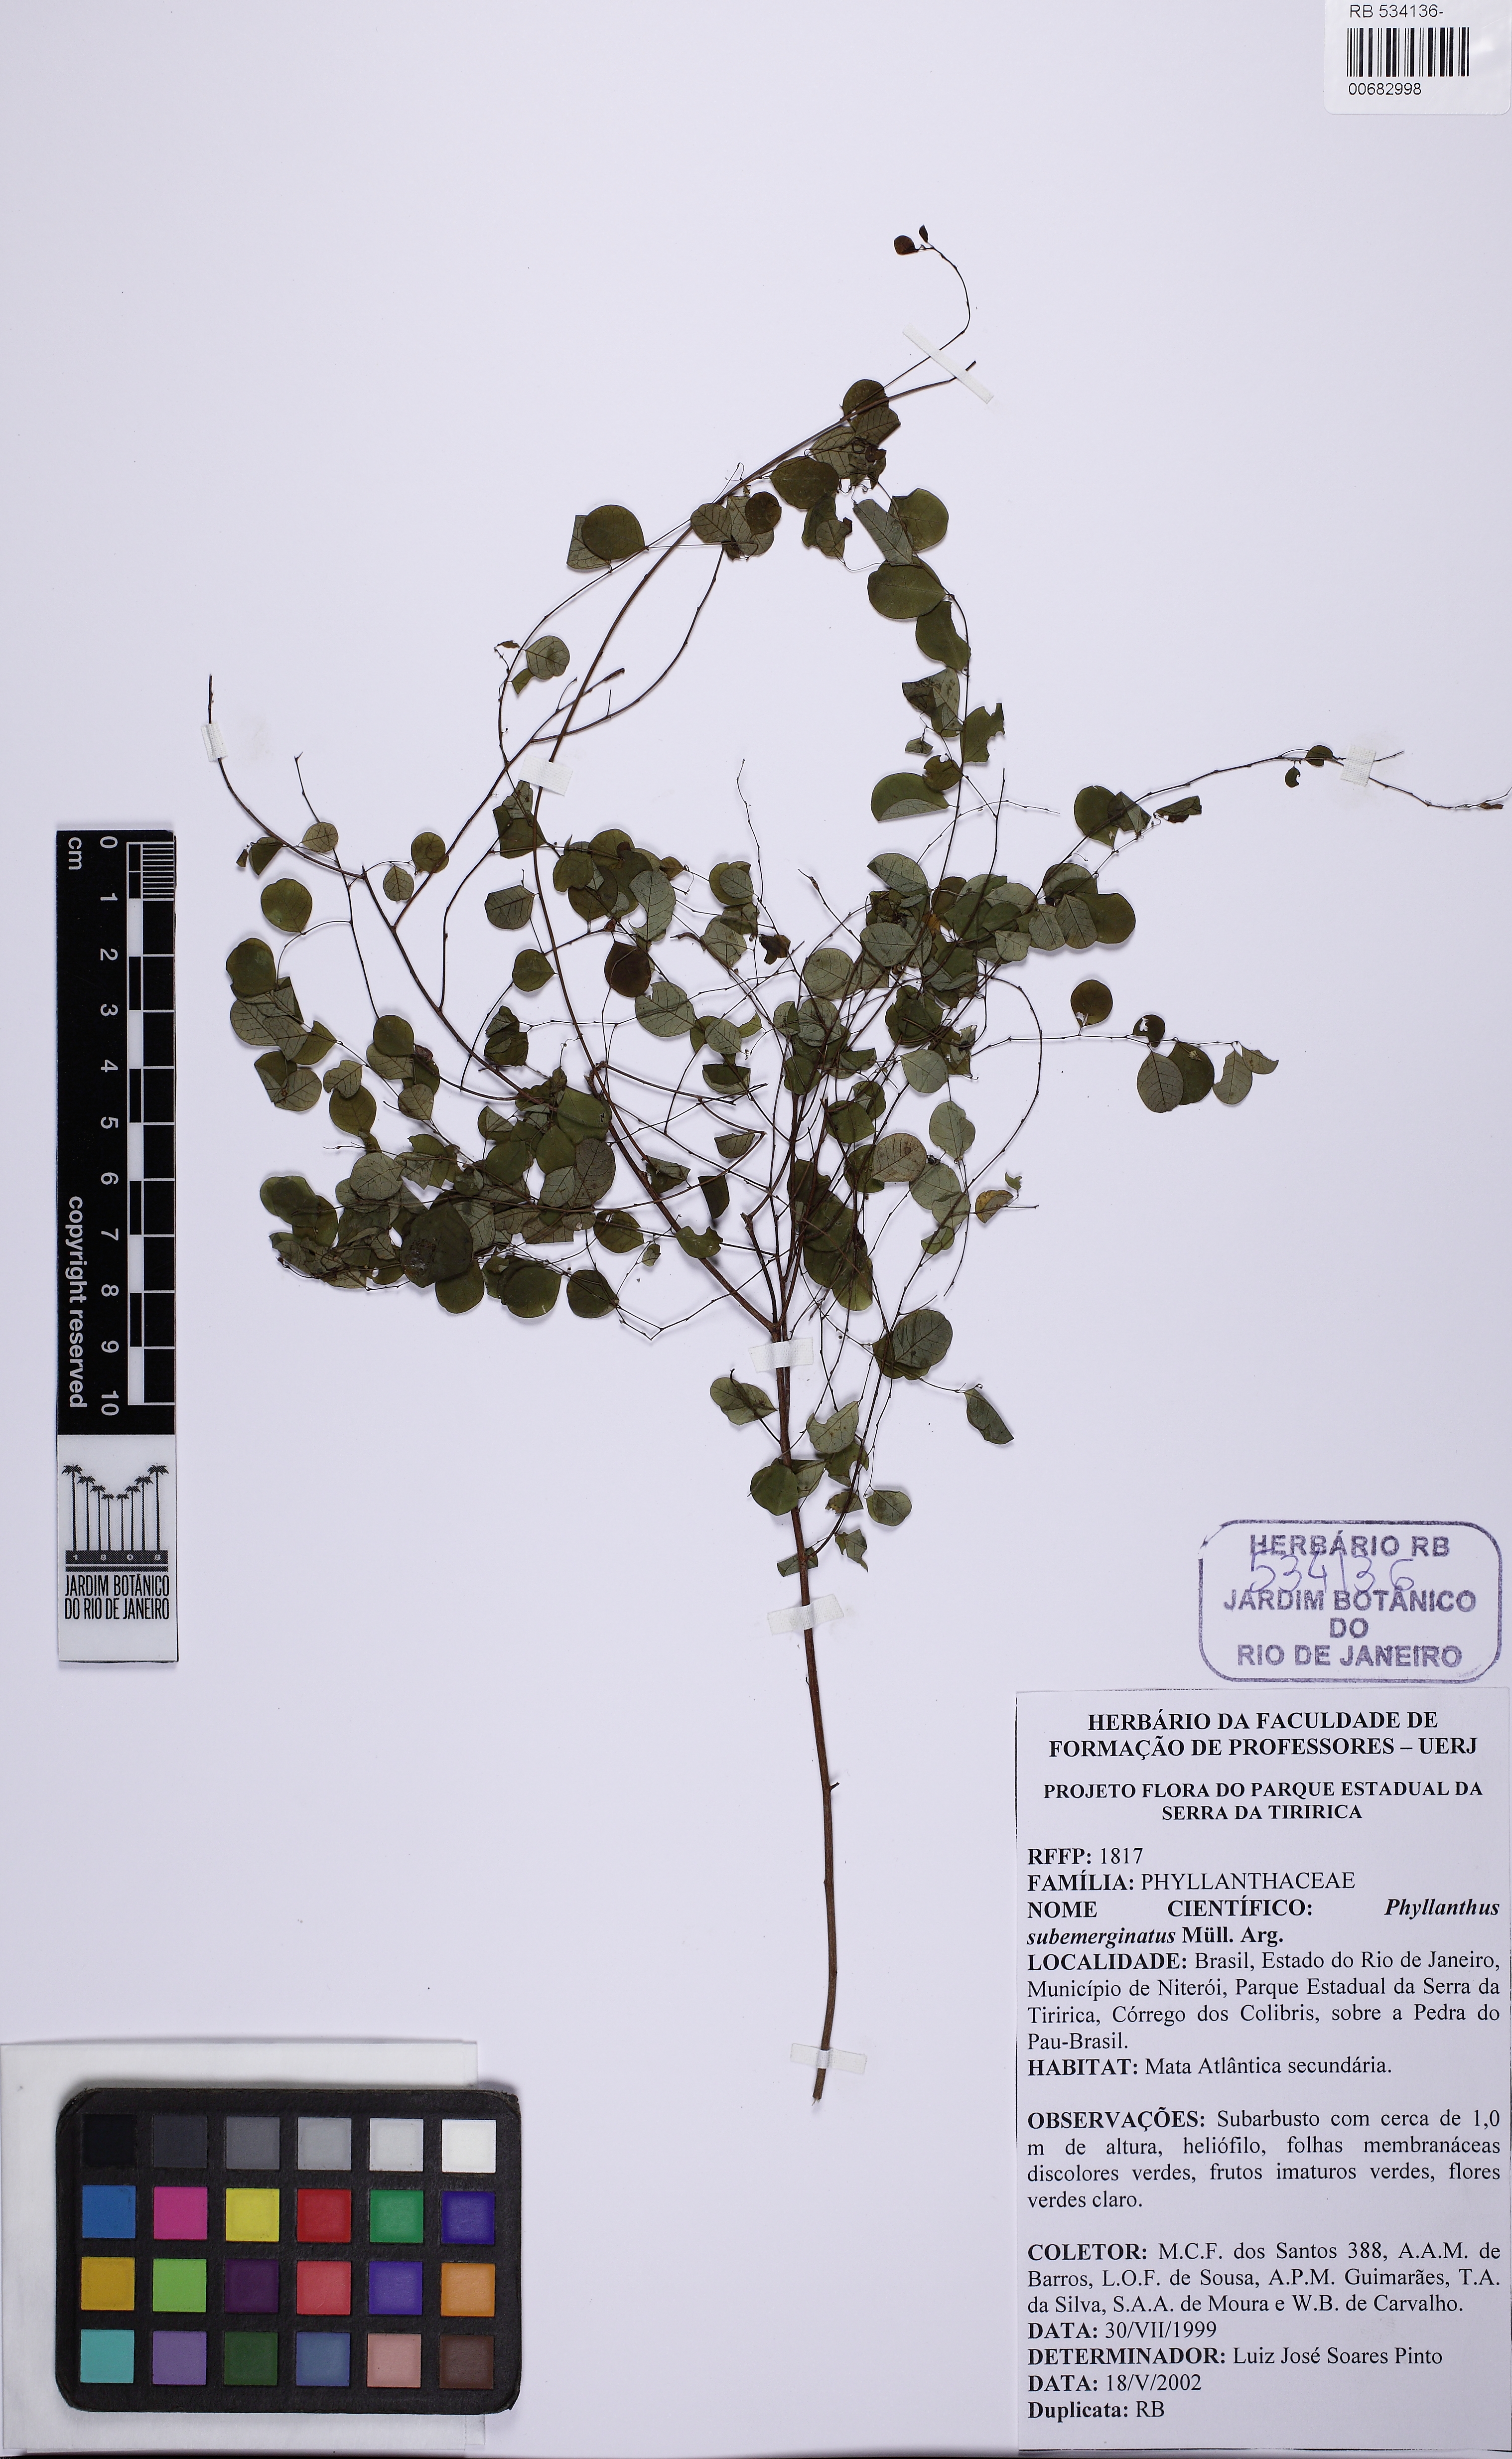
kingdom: Plantae
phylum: Tracheophyta
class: Magnoliopsida
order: Malpighiales
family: Phyllanthaceae
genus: Phyllanthus
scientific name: Phyllanthus
